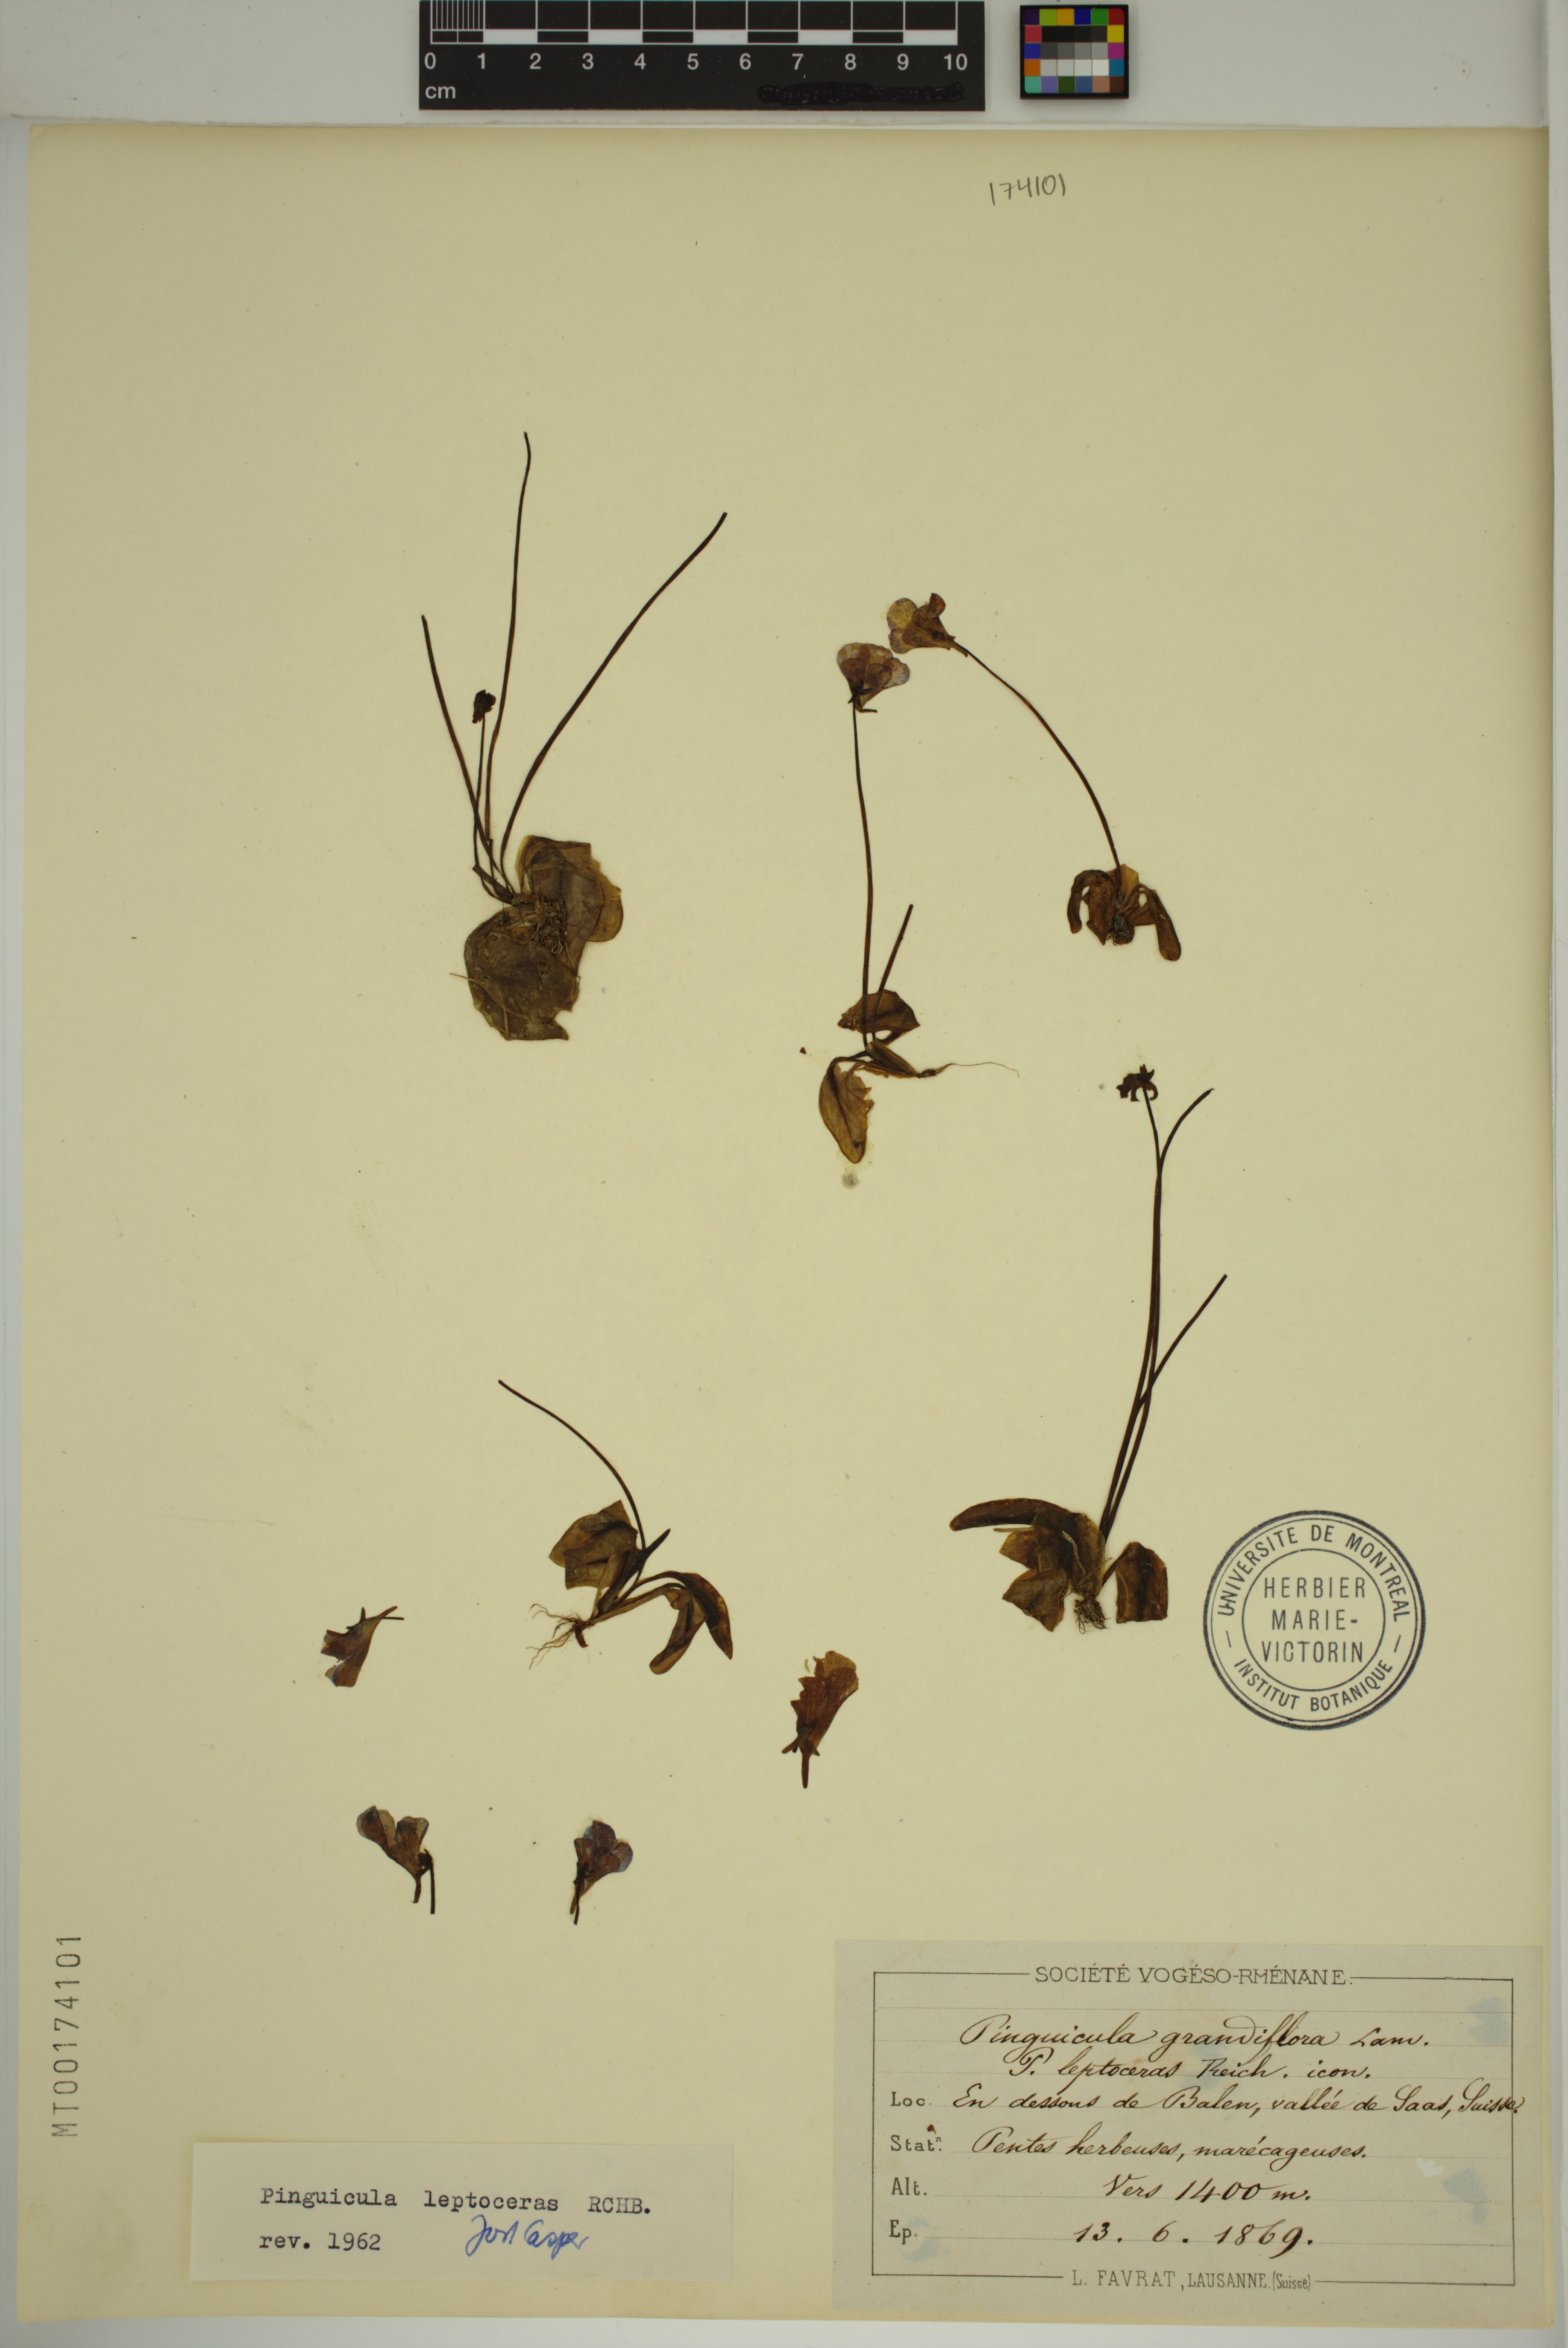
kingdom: Plantae
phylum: Tracheophyta
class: Magnoliopsida
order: Lamiales
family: Lentibulariaceae
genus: Pinguicula
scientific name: Pinguicula leptoceras
